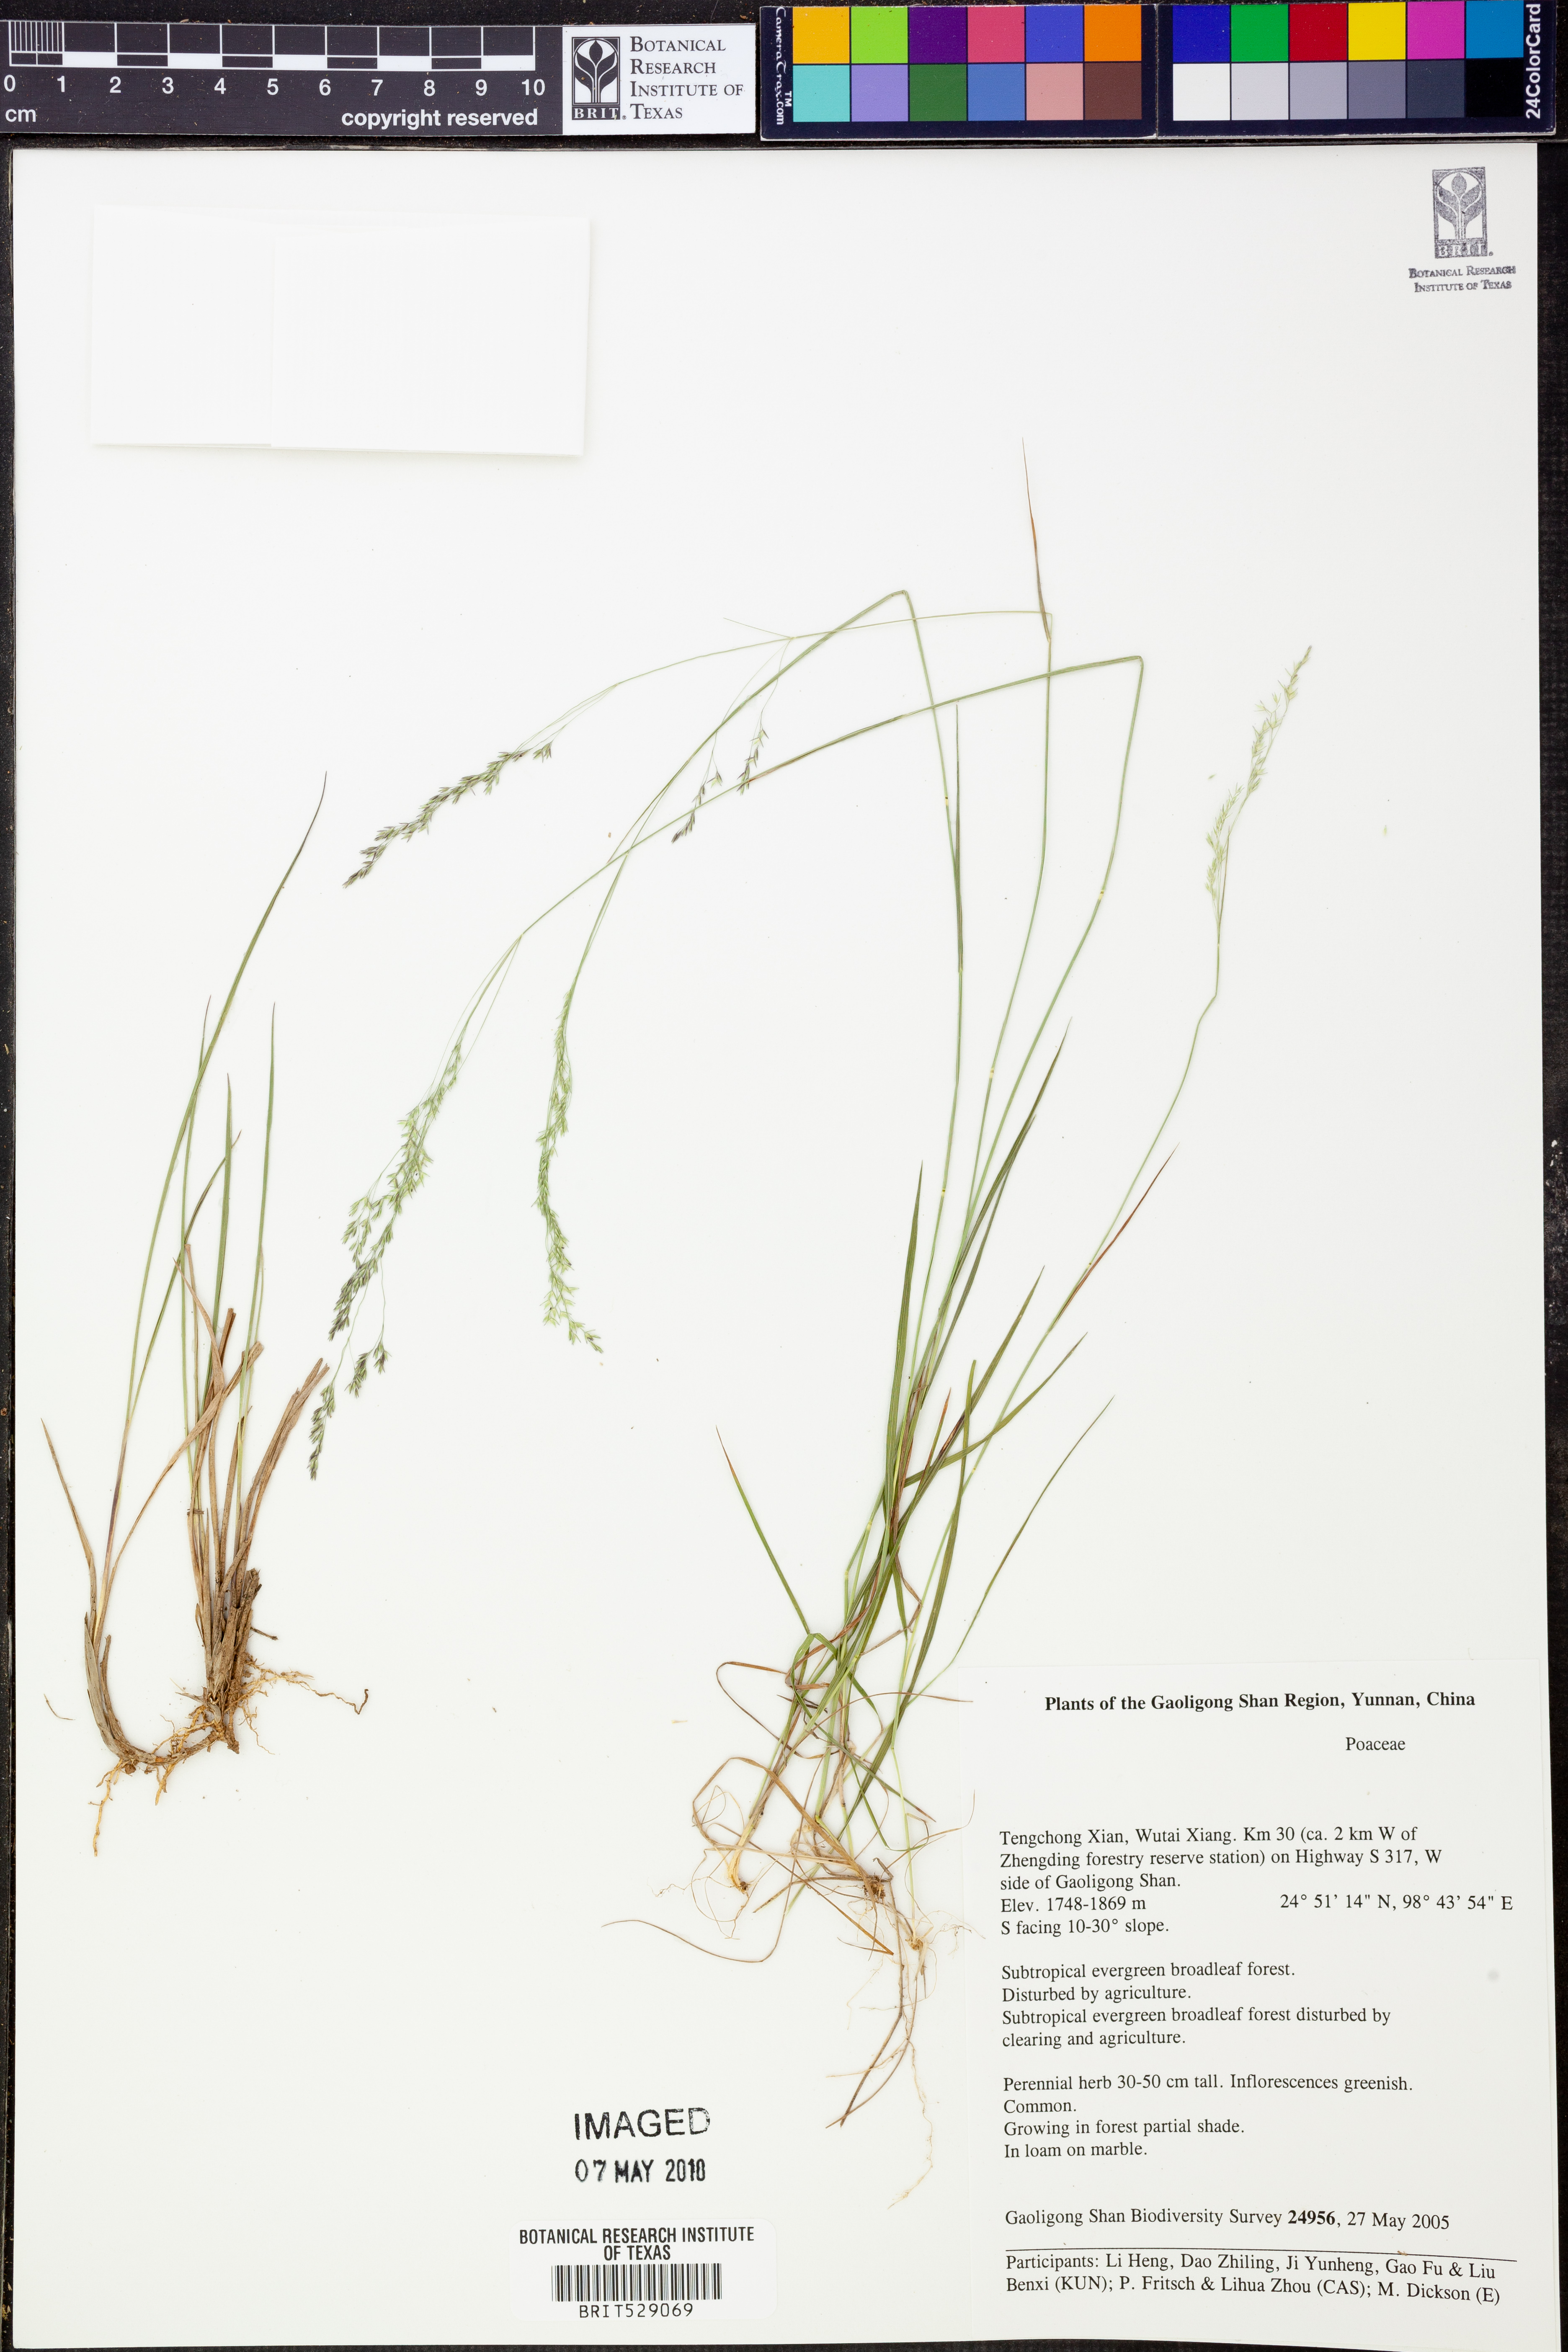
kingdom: Plantae
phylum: Tracheophyta
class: Liliopsida
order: Poales
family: Poaceae
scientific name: Poaceae
